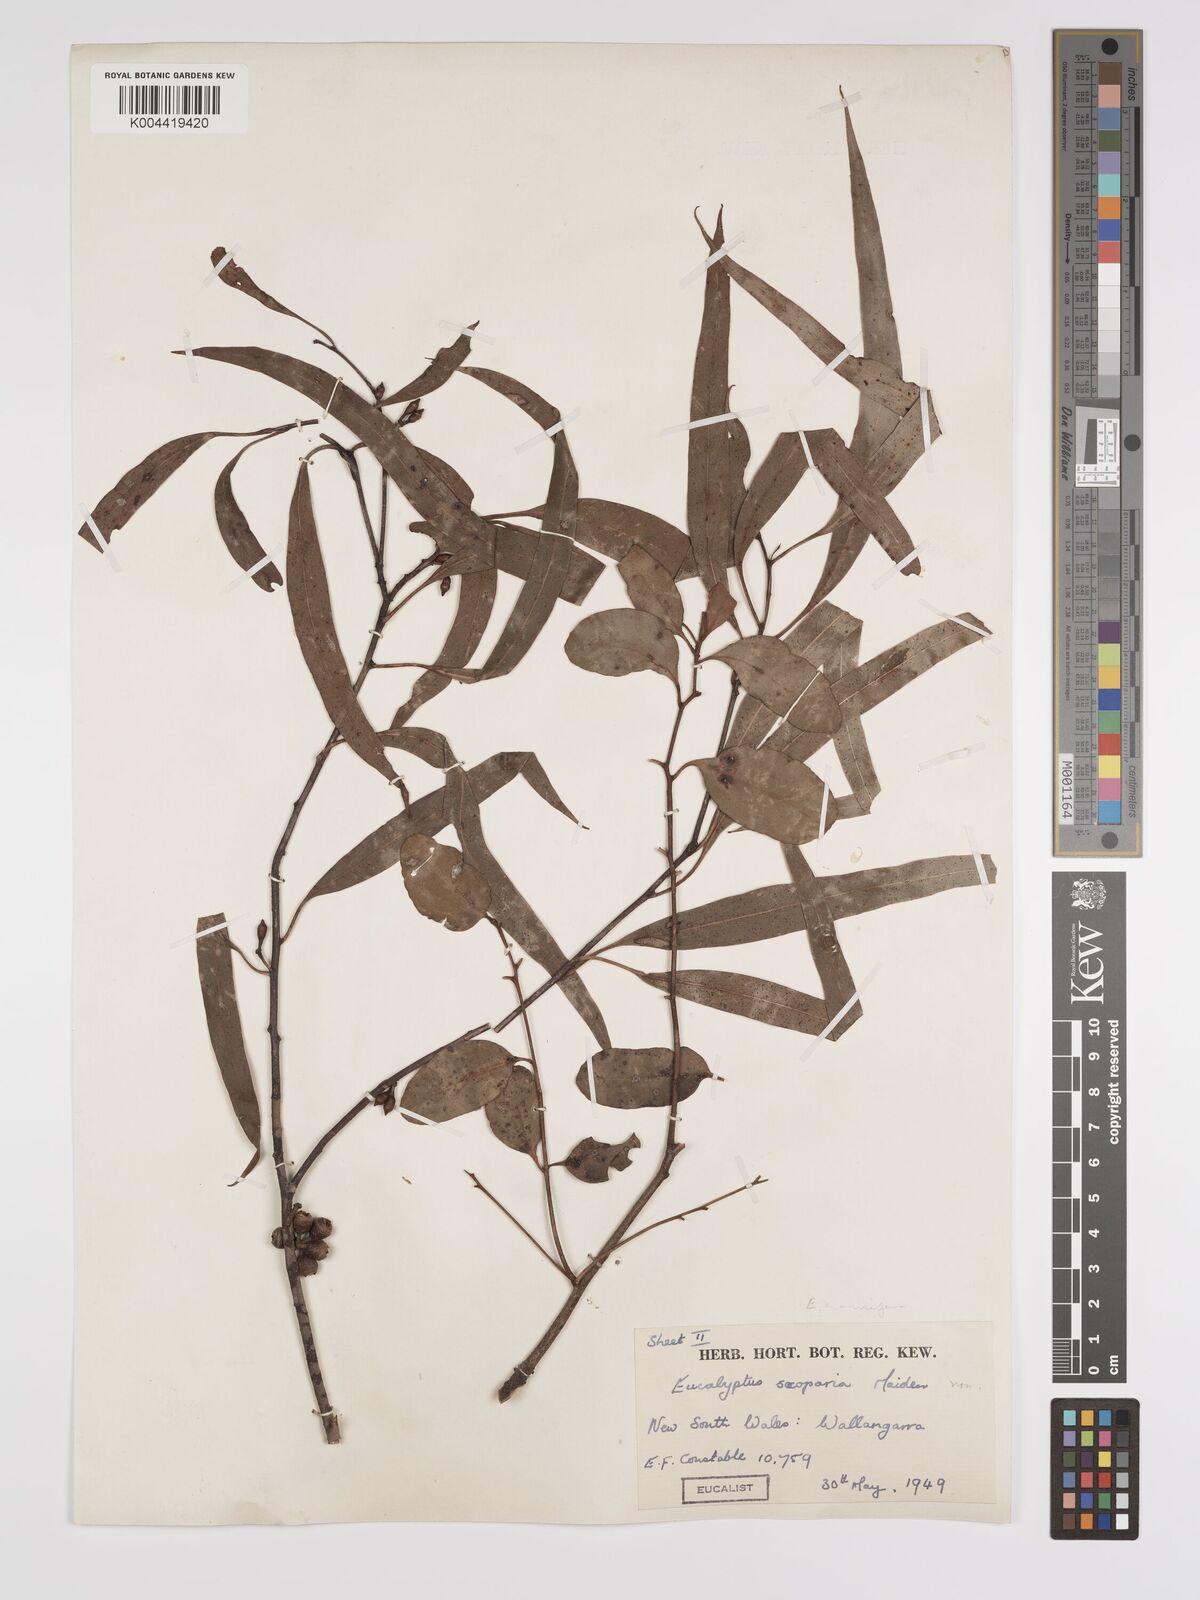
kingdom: Plantae
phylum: Tracheophyta
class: Magnoliopsida
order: Myrtales
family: Myrtaceae
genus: Eucalyptus
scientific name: Eucalyptus scoparia
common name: Wallangarra white gum
